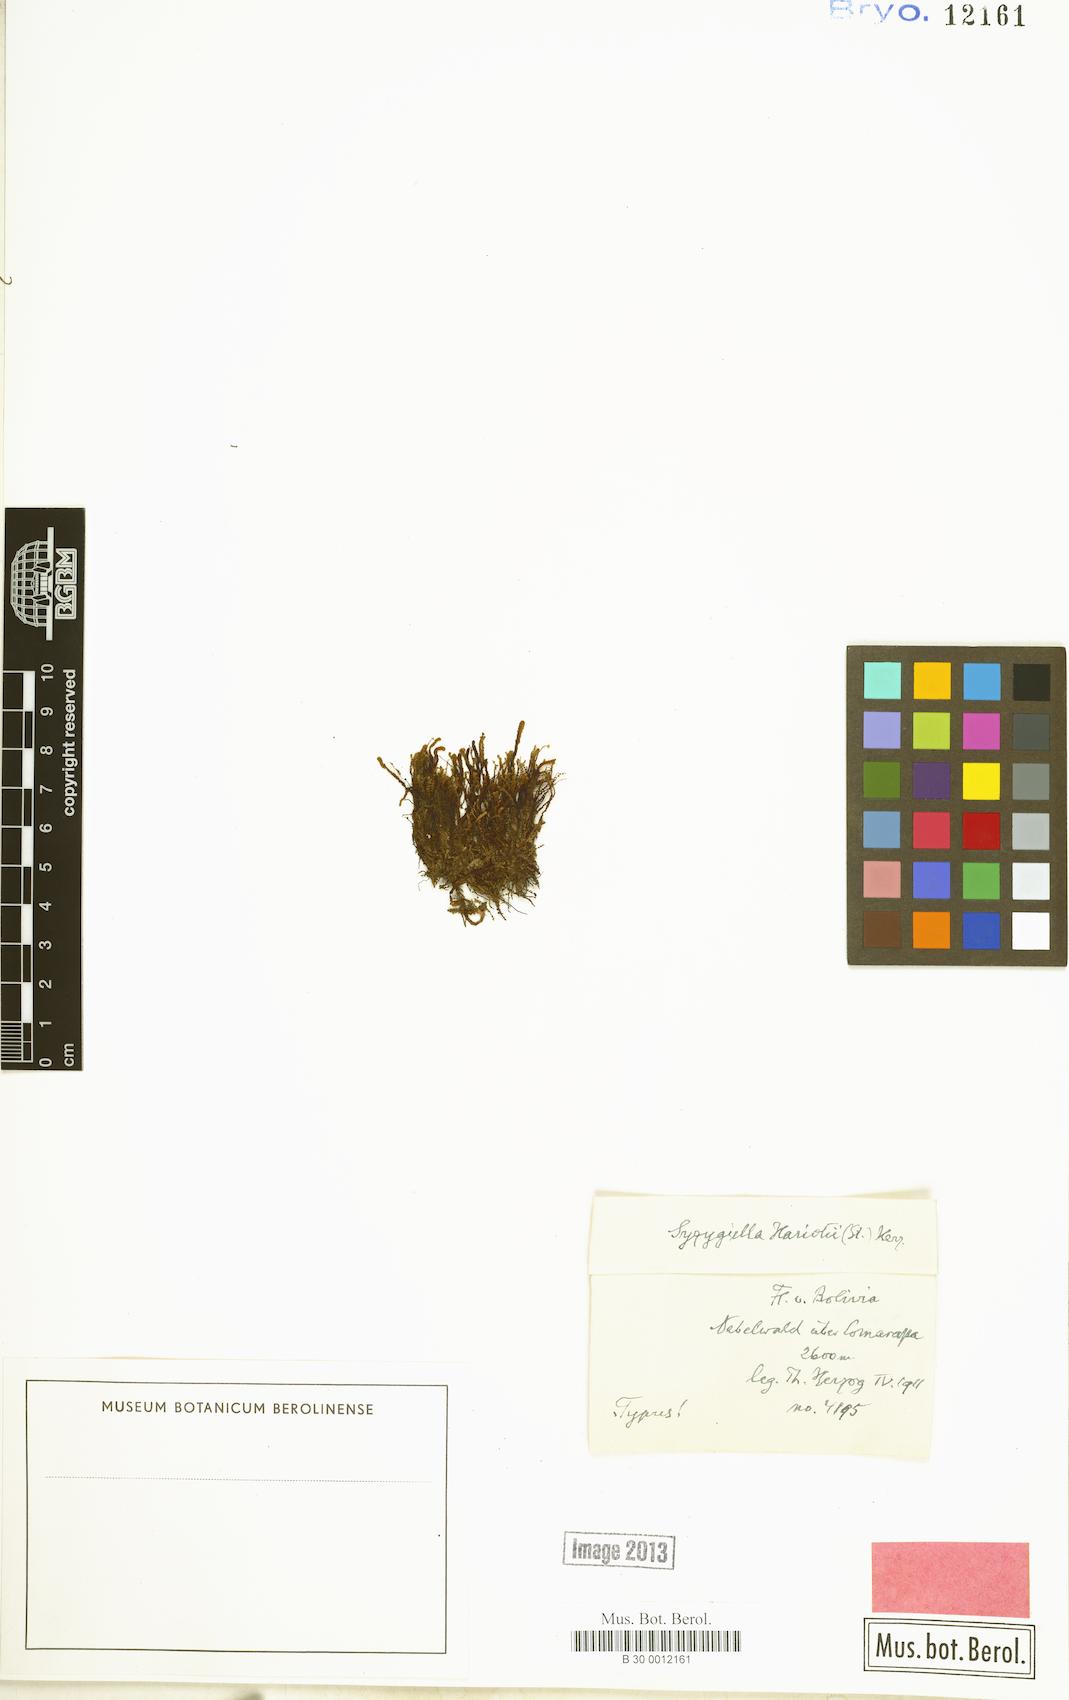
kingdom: Plantae
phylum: Marchantiophyta
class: Jungermanniopsida
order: Jungermanniales
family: Adelanthaceae
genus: Syzygiella
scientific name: Syzygiella
